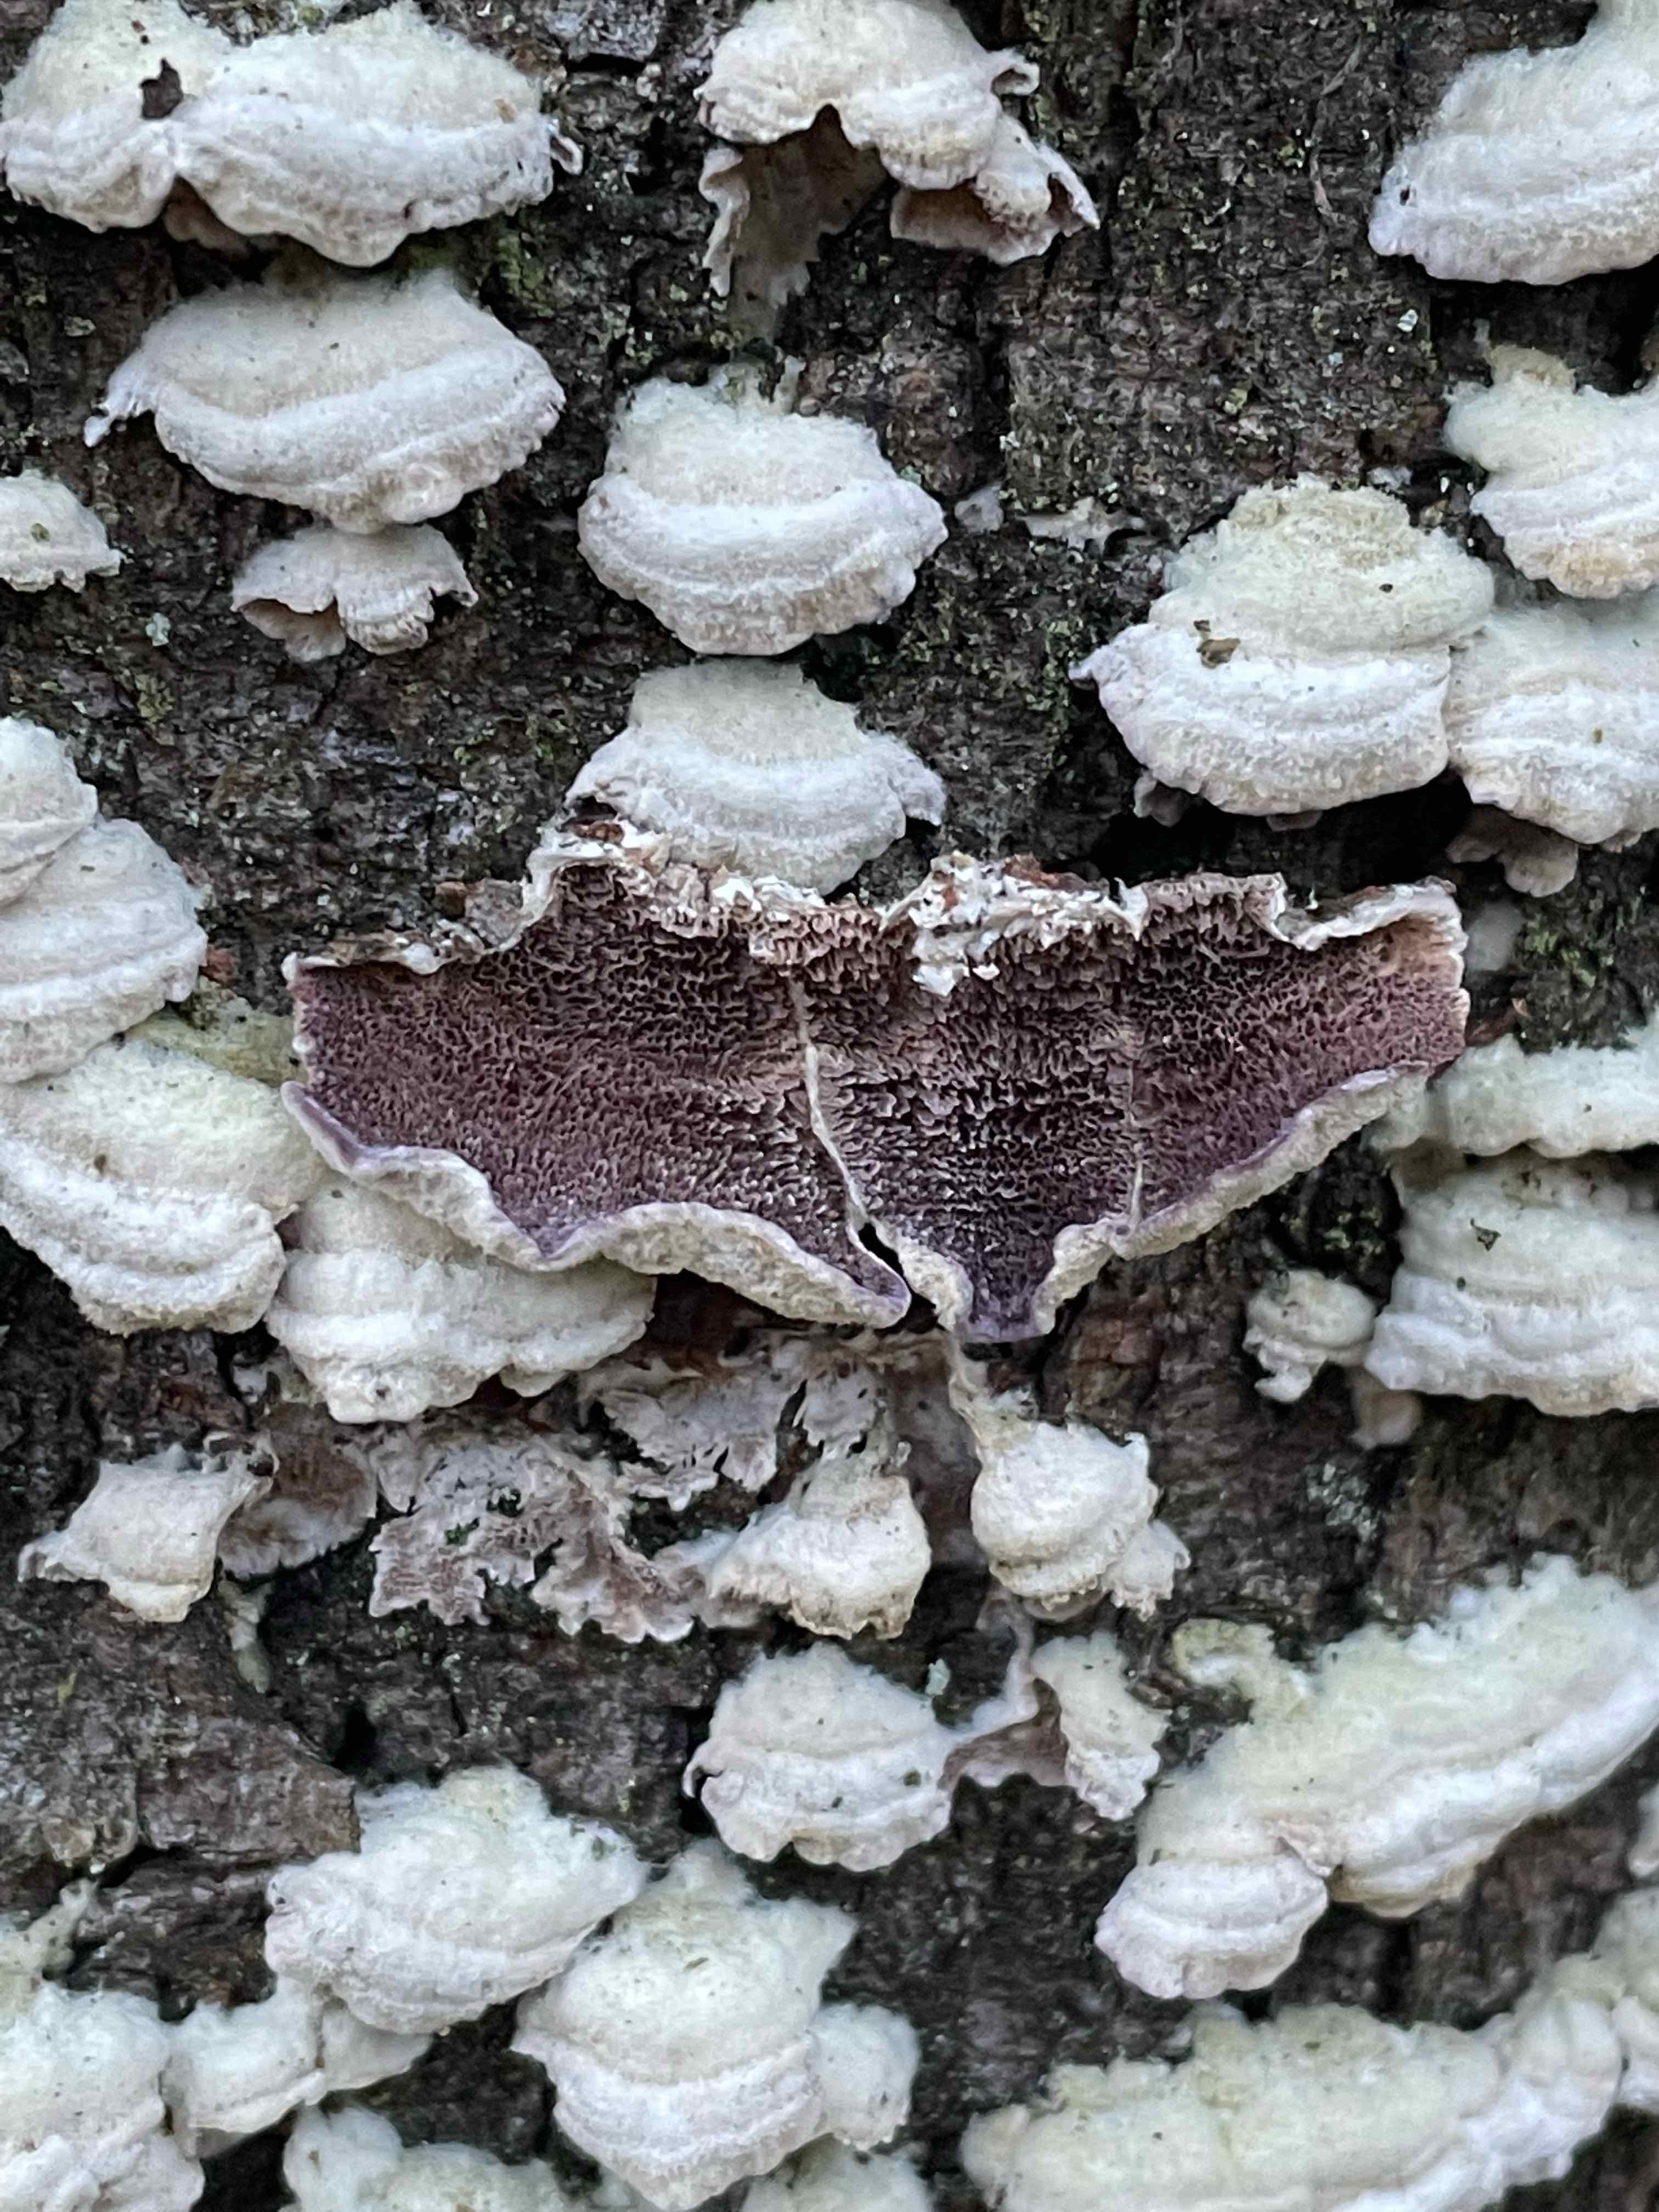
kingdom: Fungi
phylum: Basidiomycota
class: Agaricomycetes
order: Hymenochaetales
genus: Trichaptum
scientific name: Trichaptum fuscoviolaceum
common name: tandet violporesvamp
